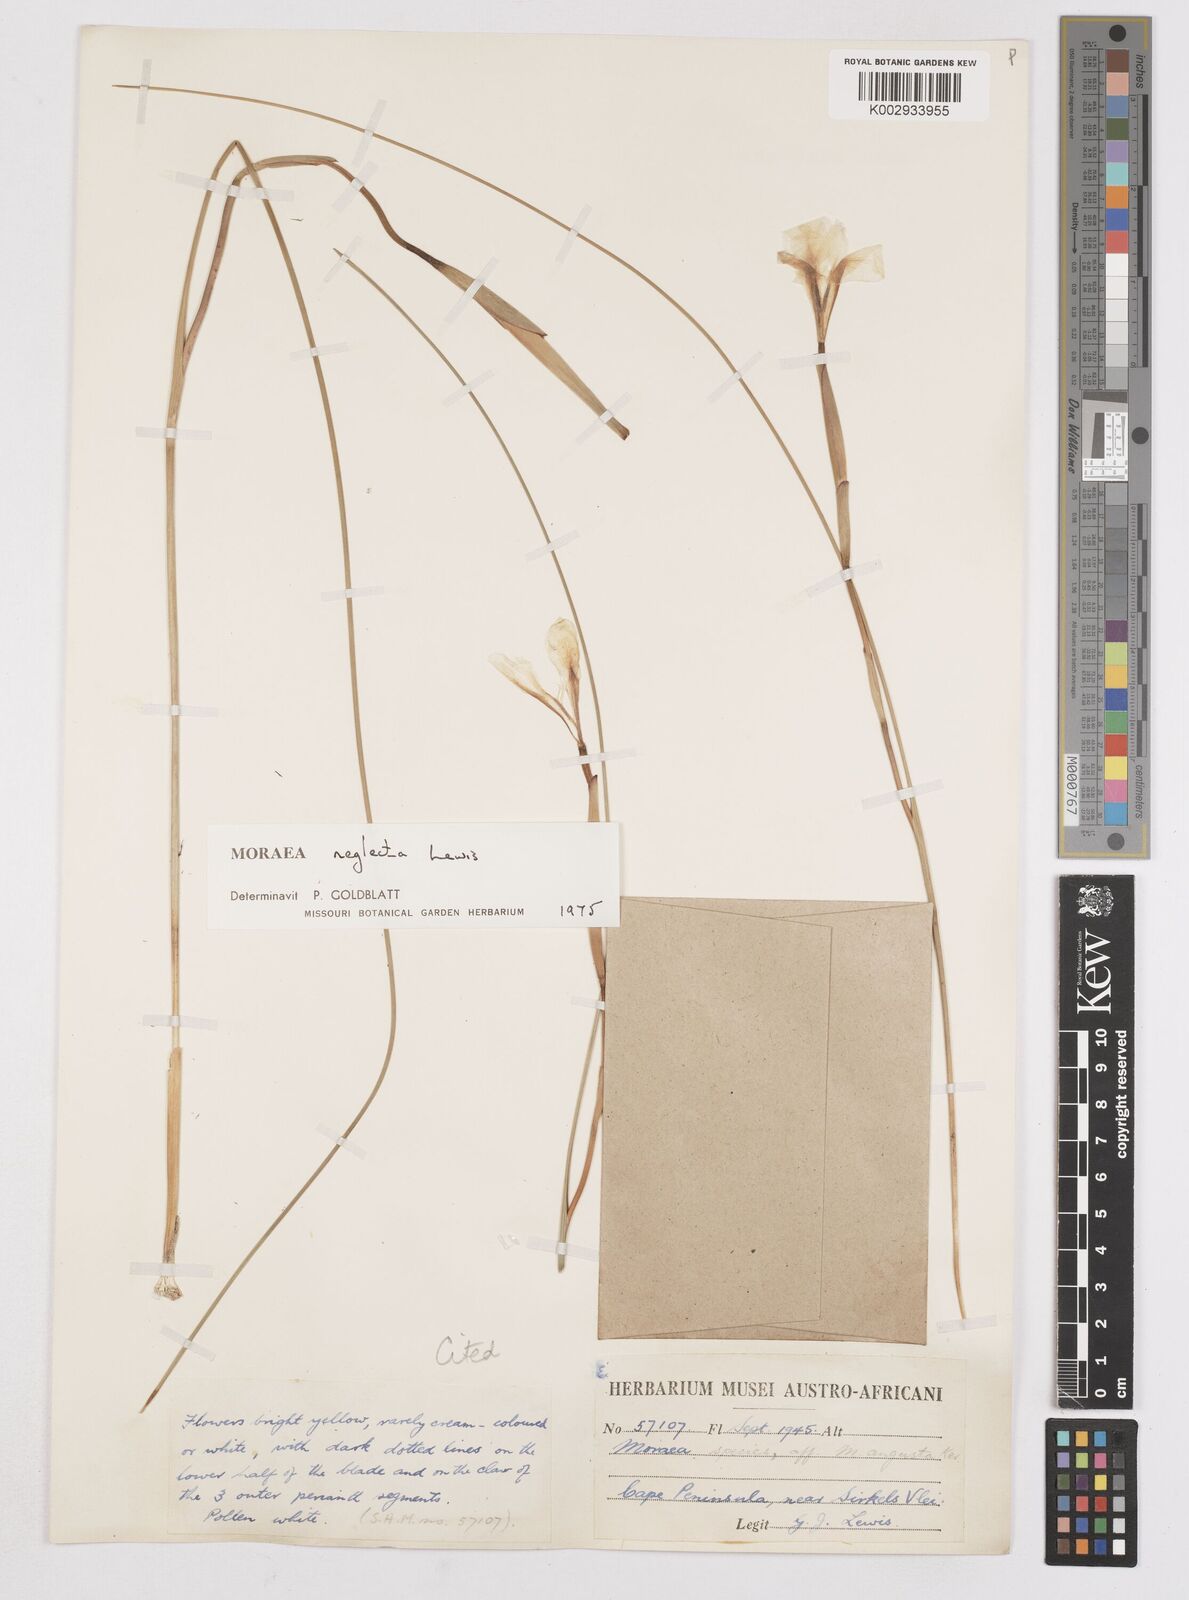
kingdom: Plantae
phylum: Tracheophyta
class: Liliopsida
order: Asparagales
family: Iridaceae
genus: Moraea
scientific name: Moraea neglecta
